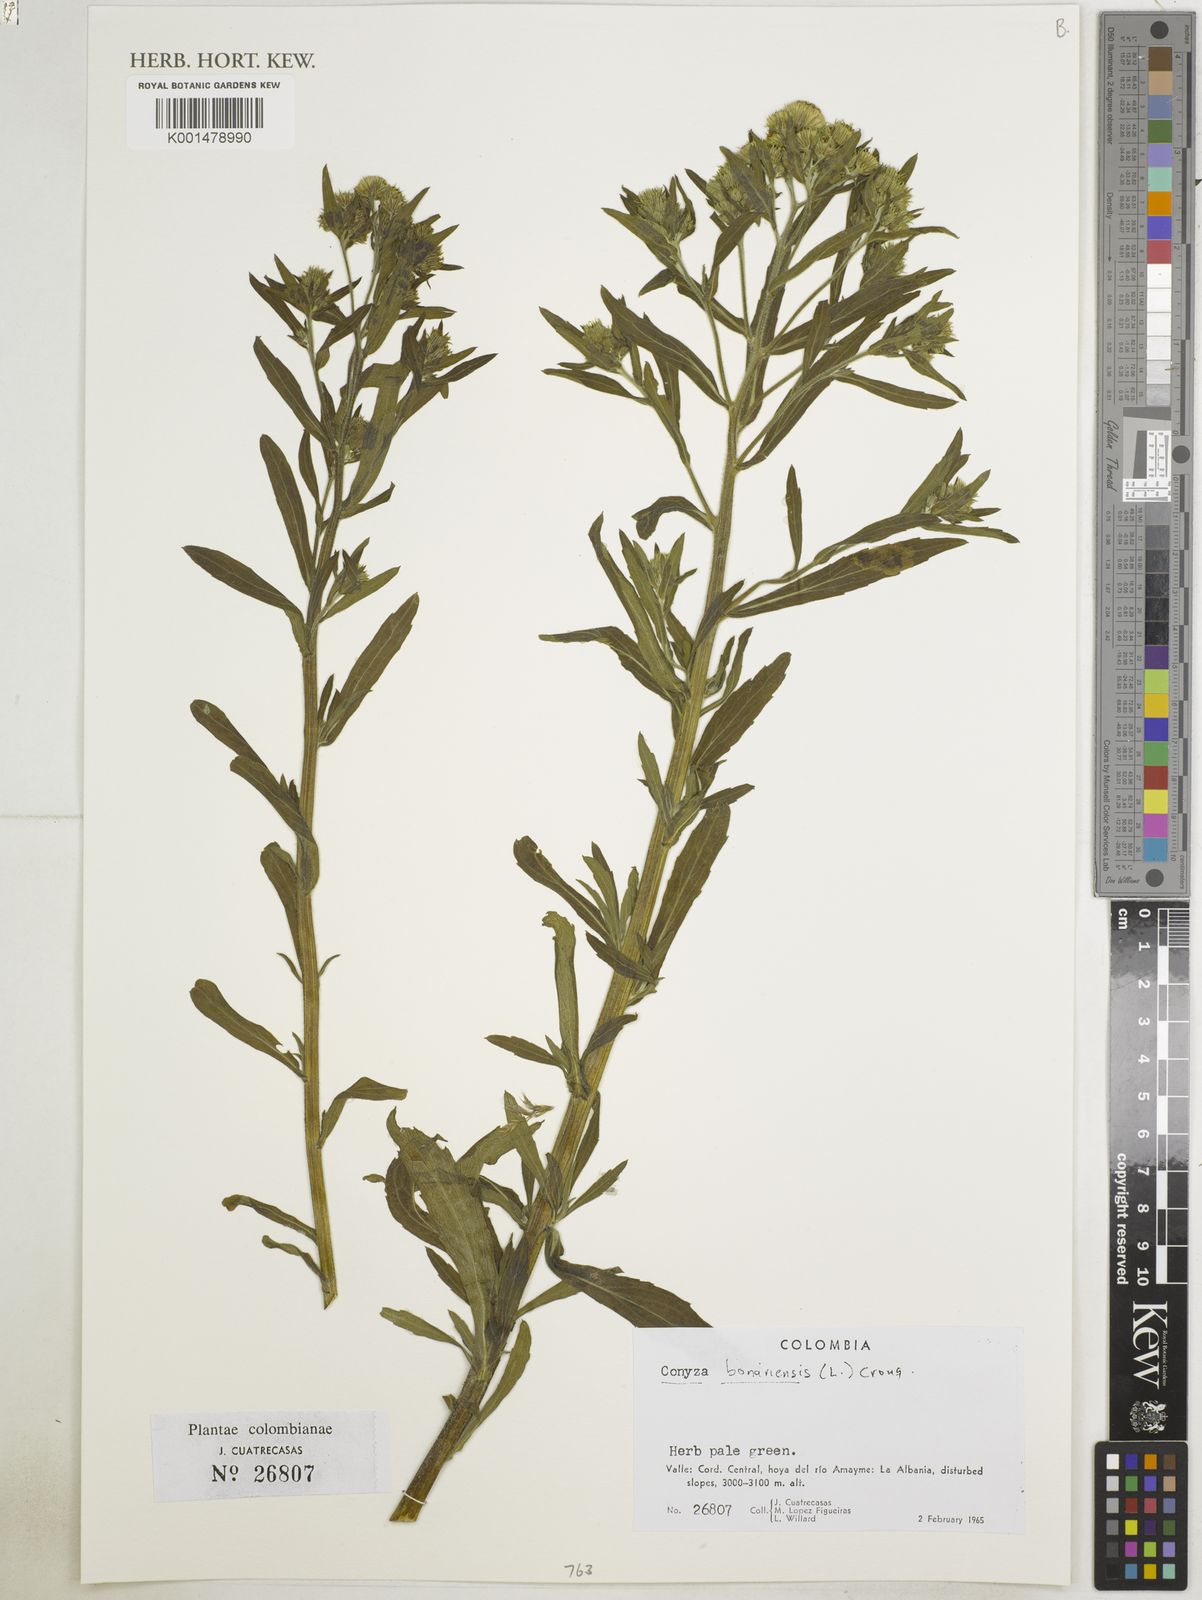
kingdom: Plantae
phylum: Tracheophyta
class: Magnoliopsida
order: Asterales
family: Asteraceae
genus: Erigeron
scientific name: Erigeron bonariensis
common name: Argentine fleabane
